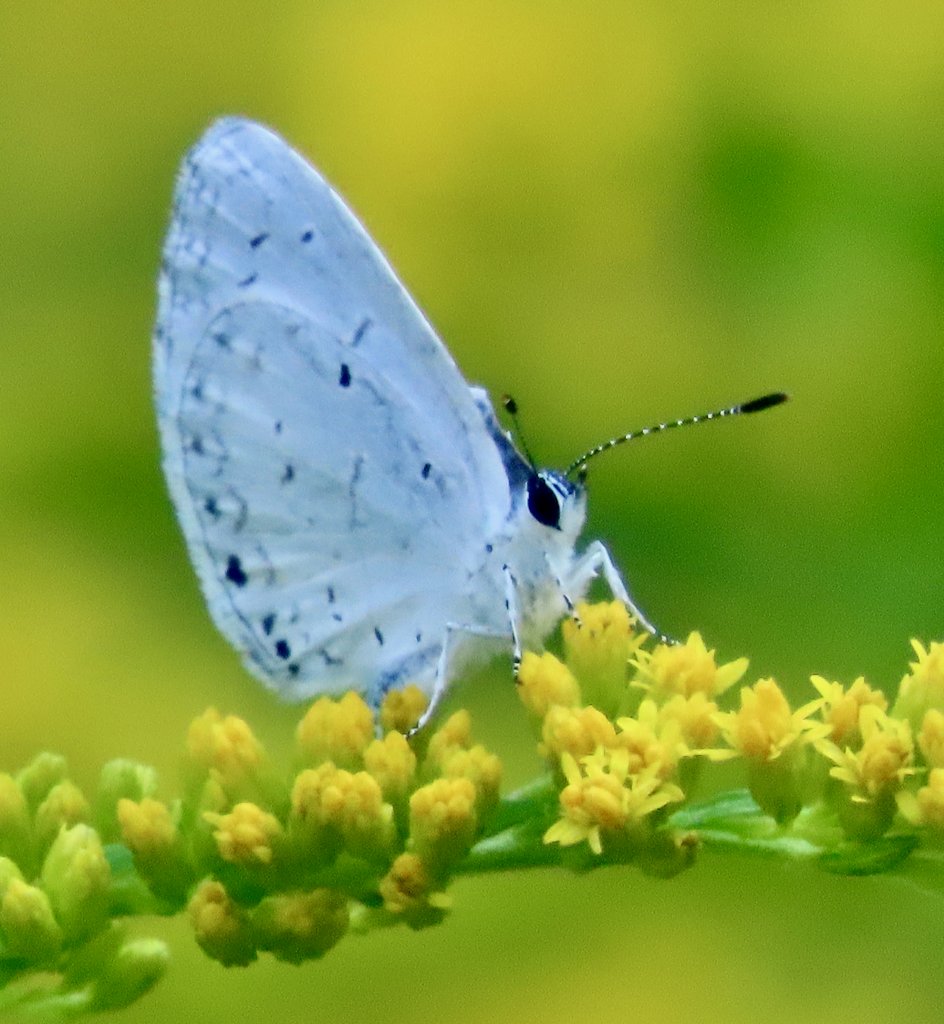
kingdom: Animalia
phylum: Arthropoda
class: Insecta
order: Lepidoptera
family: Lycaenidae
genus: Cyaniris
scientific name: Cyaniris neglecta
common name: Summer Azure
